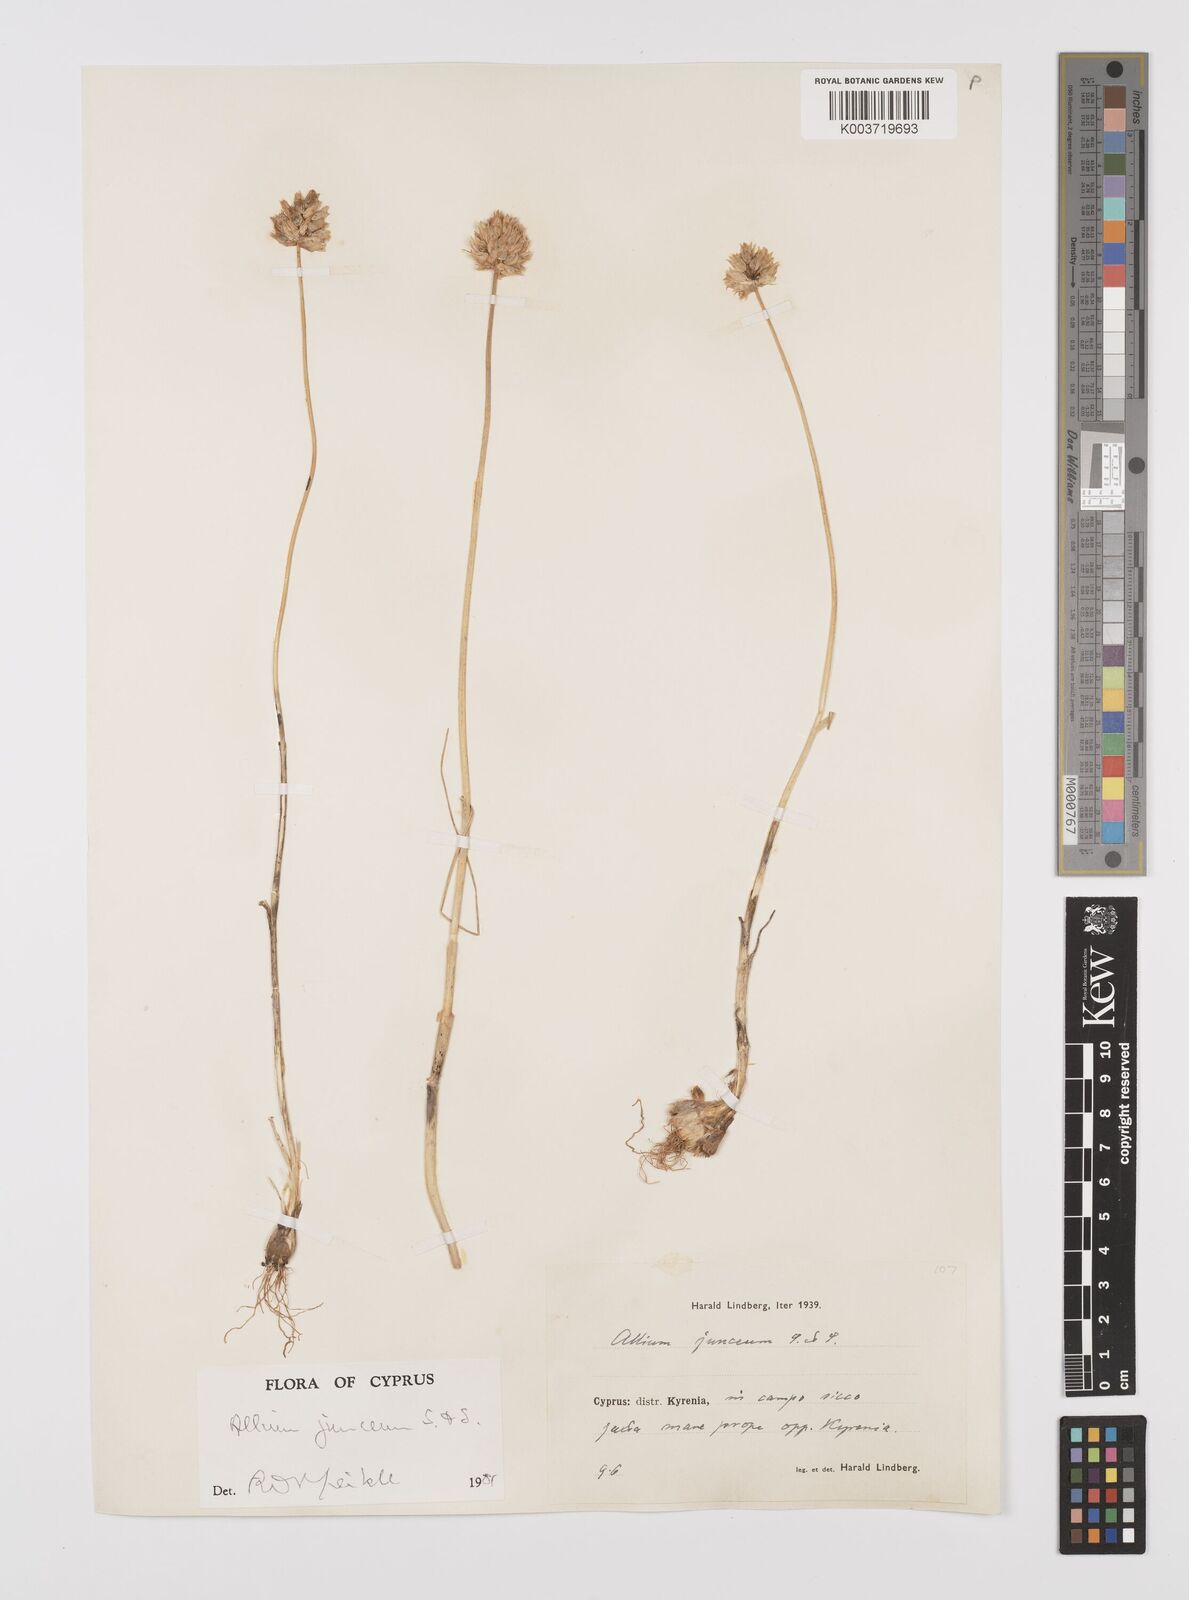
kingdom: Plantae
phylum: Tracheophyta
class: Liliopsida
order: Asparagales
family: Amaryllidaceae
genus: Allium
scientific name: Allium junceum
